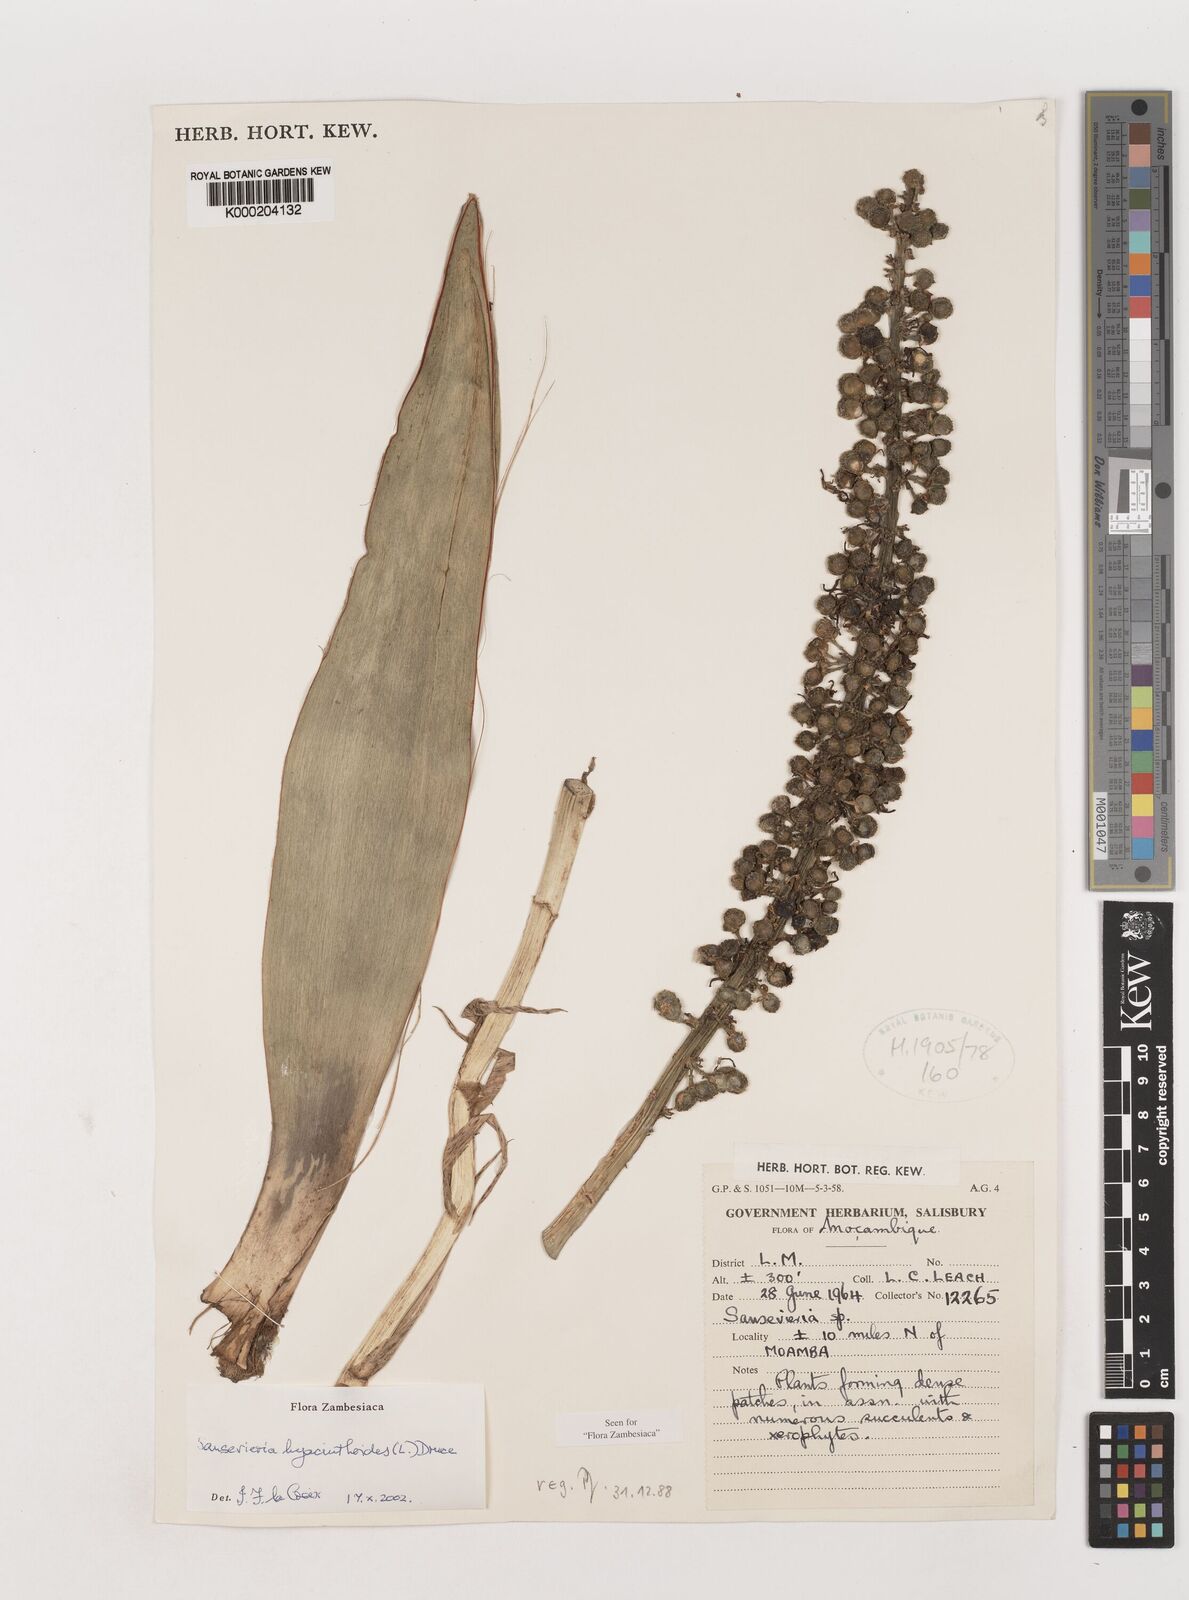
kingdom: Plantae
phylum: Tracheophyta
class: Liliopsida
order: Asparagales
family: Asparagaceae
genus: Dracaena
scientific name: Dracaena hyacinthoides
